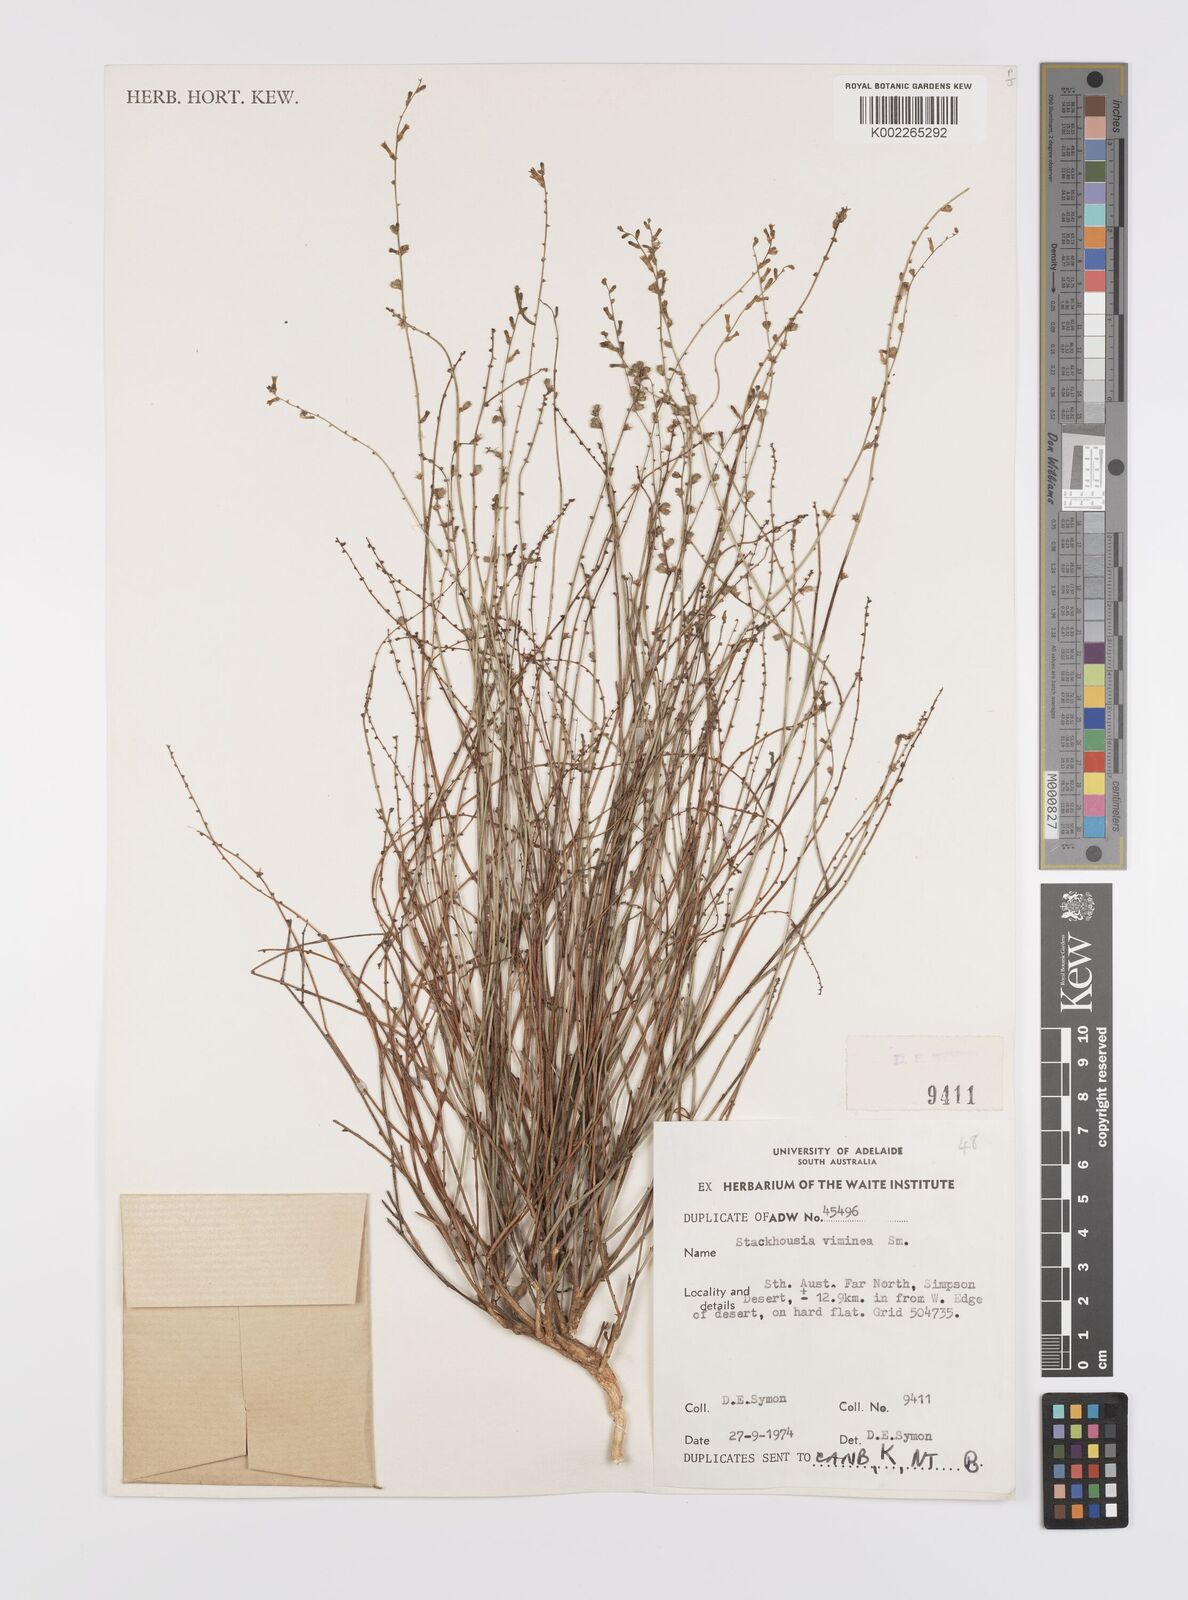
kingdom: Plantae
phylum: Tracheophyta
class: Magnoliopsida
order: Celastrales
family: Celastraceae
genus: Stackhousia
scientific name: Stackhousia viminea
